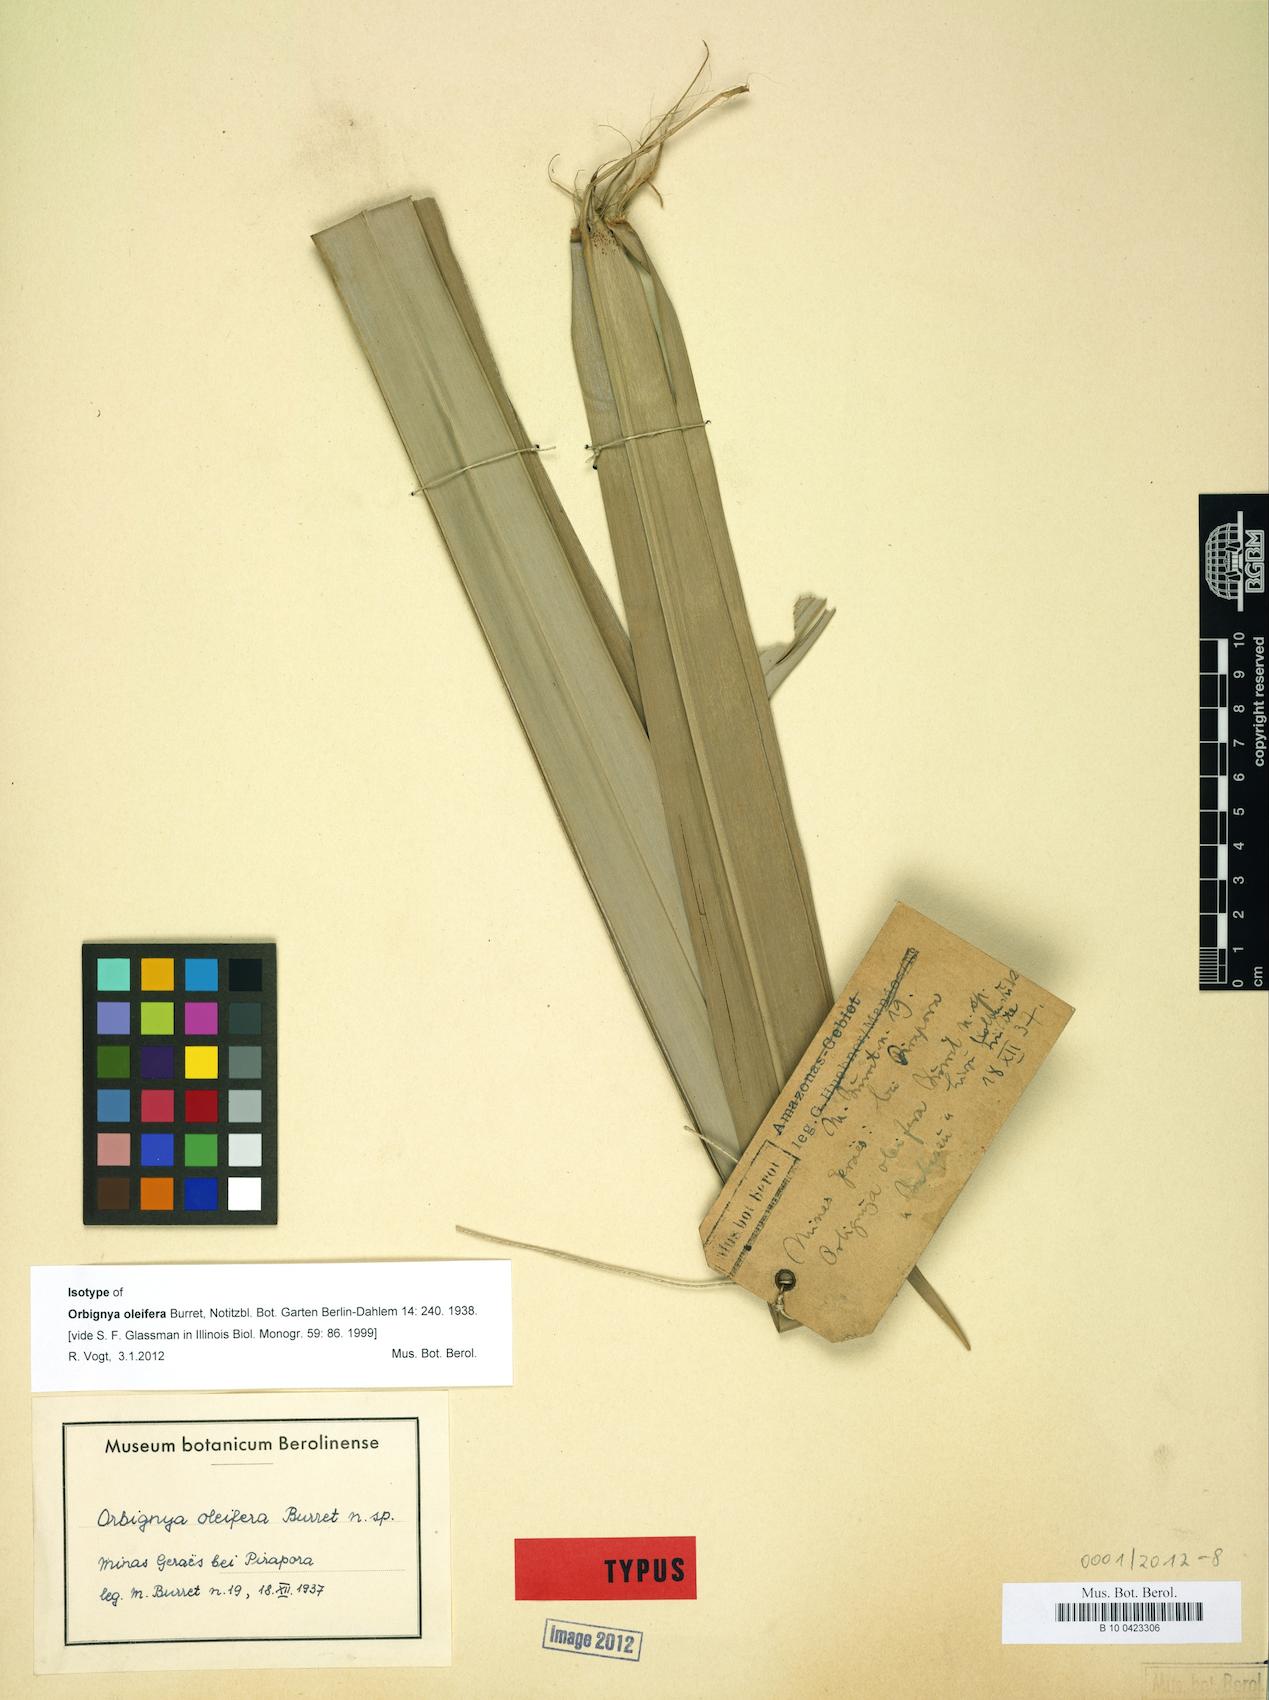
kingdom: Plantae
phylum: Tracheophyta
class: Liliopsida
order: Arecales
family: Arecaceae
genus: Attalea
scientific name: Attalea vitrivir
